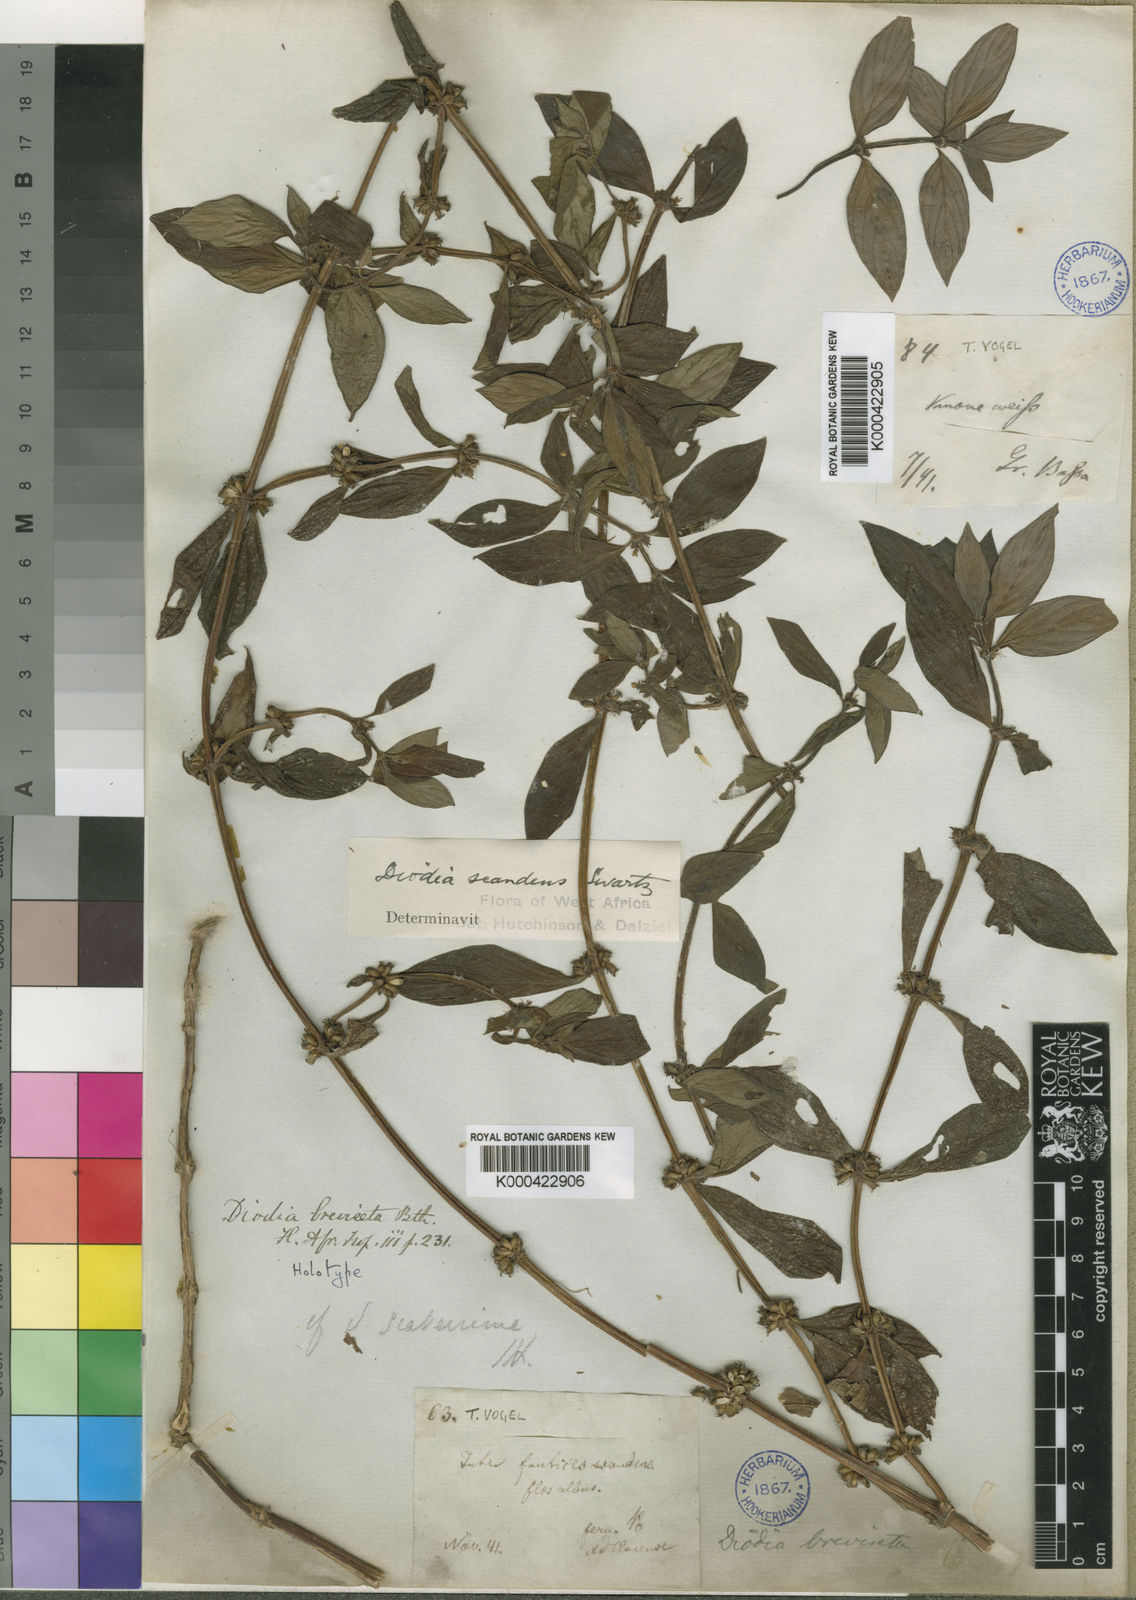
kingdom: Plantae
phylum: Tracheophyta
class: Magnoliopsida
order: Gentianales
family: Rubiaceae
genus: Hexasepalum
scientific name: Hexasepalum sarmentosum
